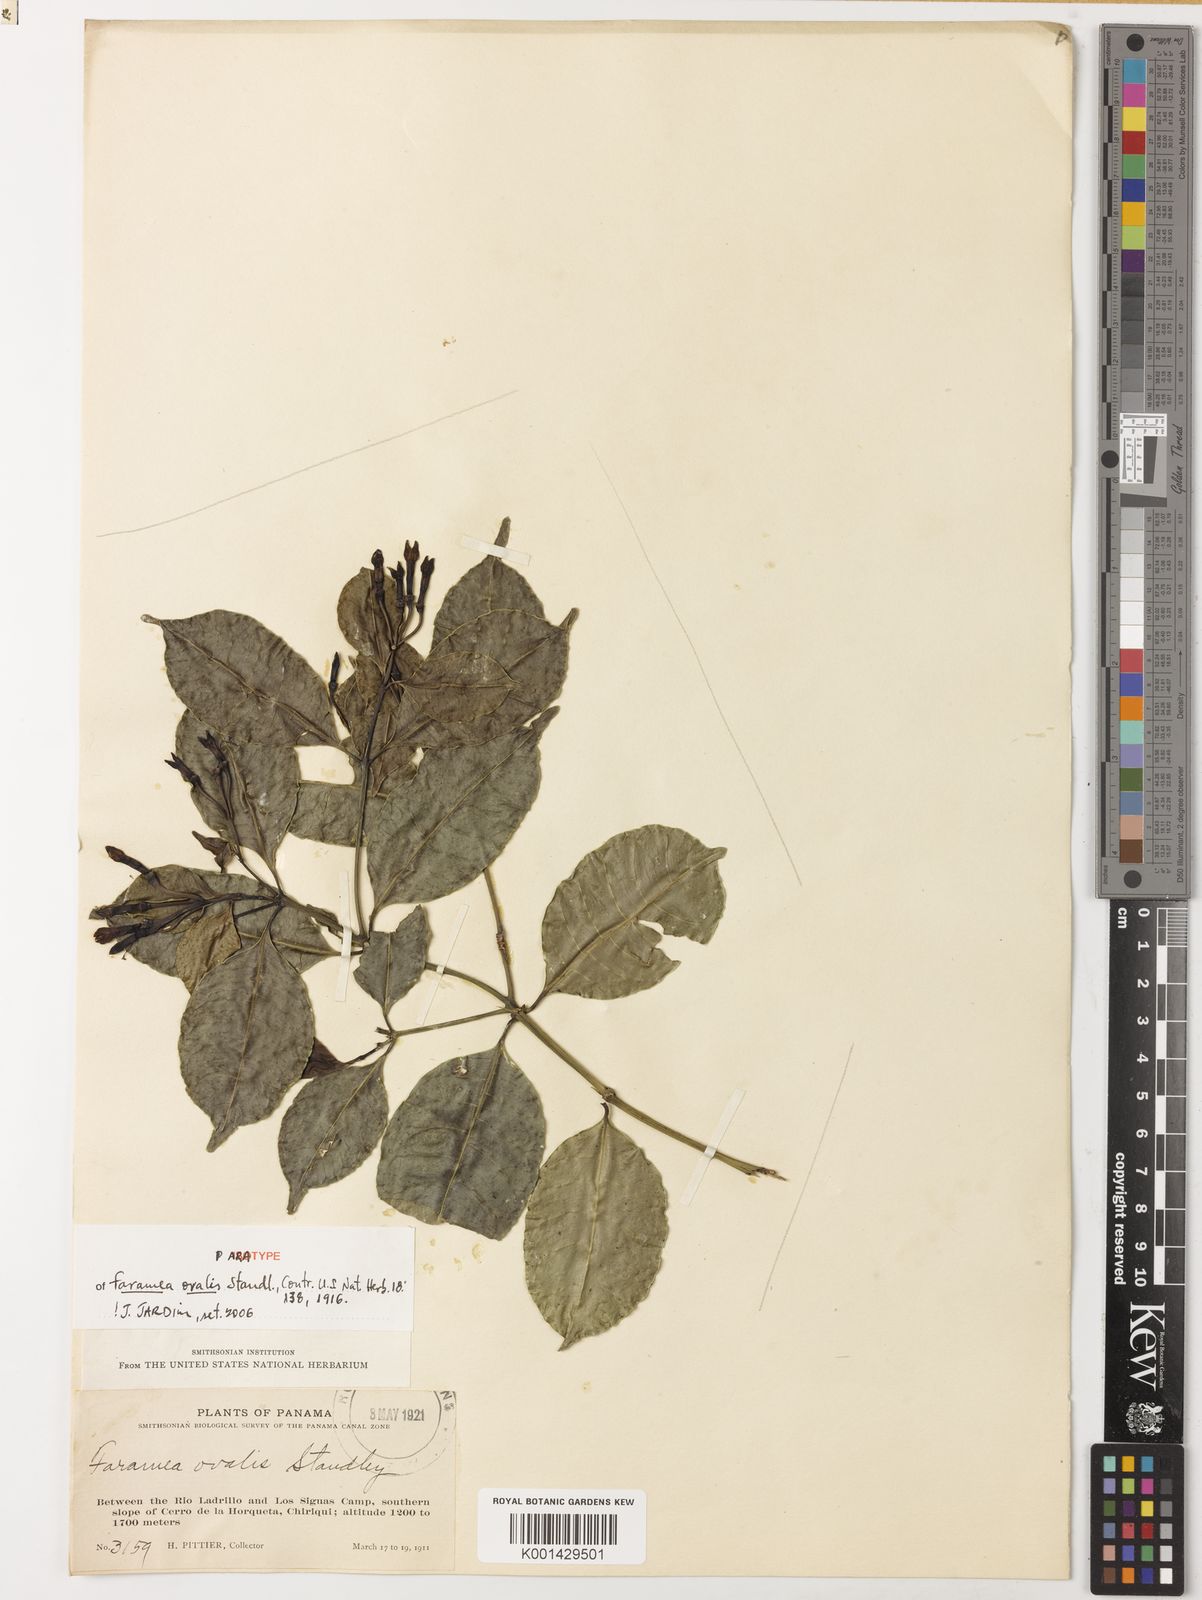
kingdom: Plantae
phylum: Tracheophyta
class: Magnoliopsida
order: Gentianales
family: Rubiaceae
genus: Faramea
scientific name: Faramea ovalis
